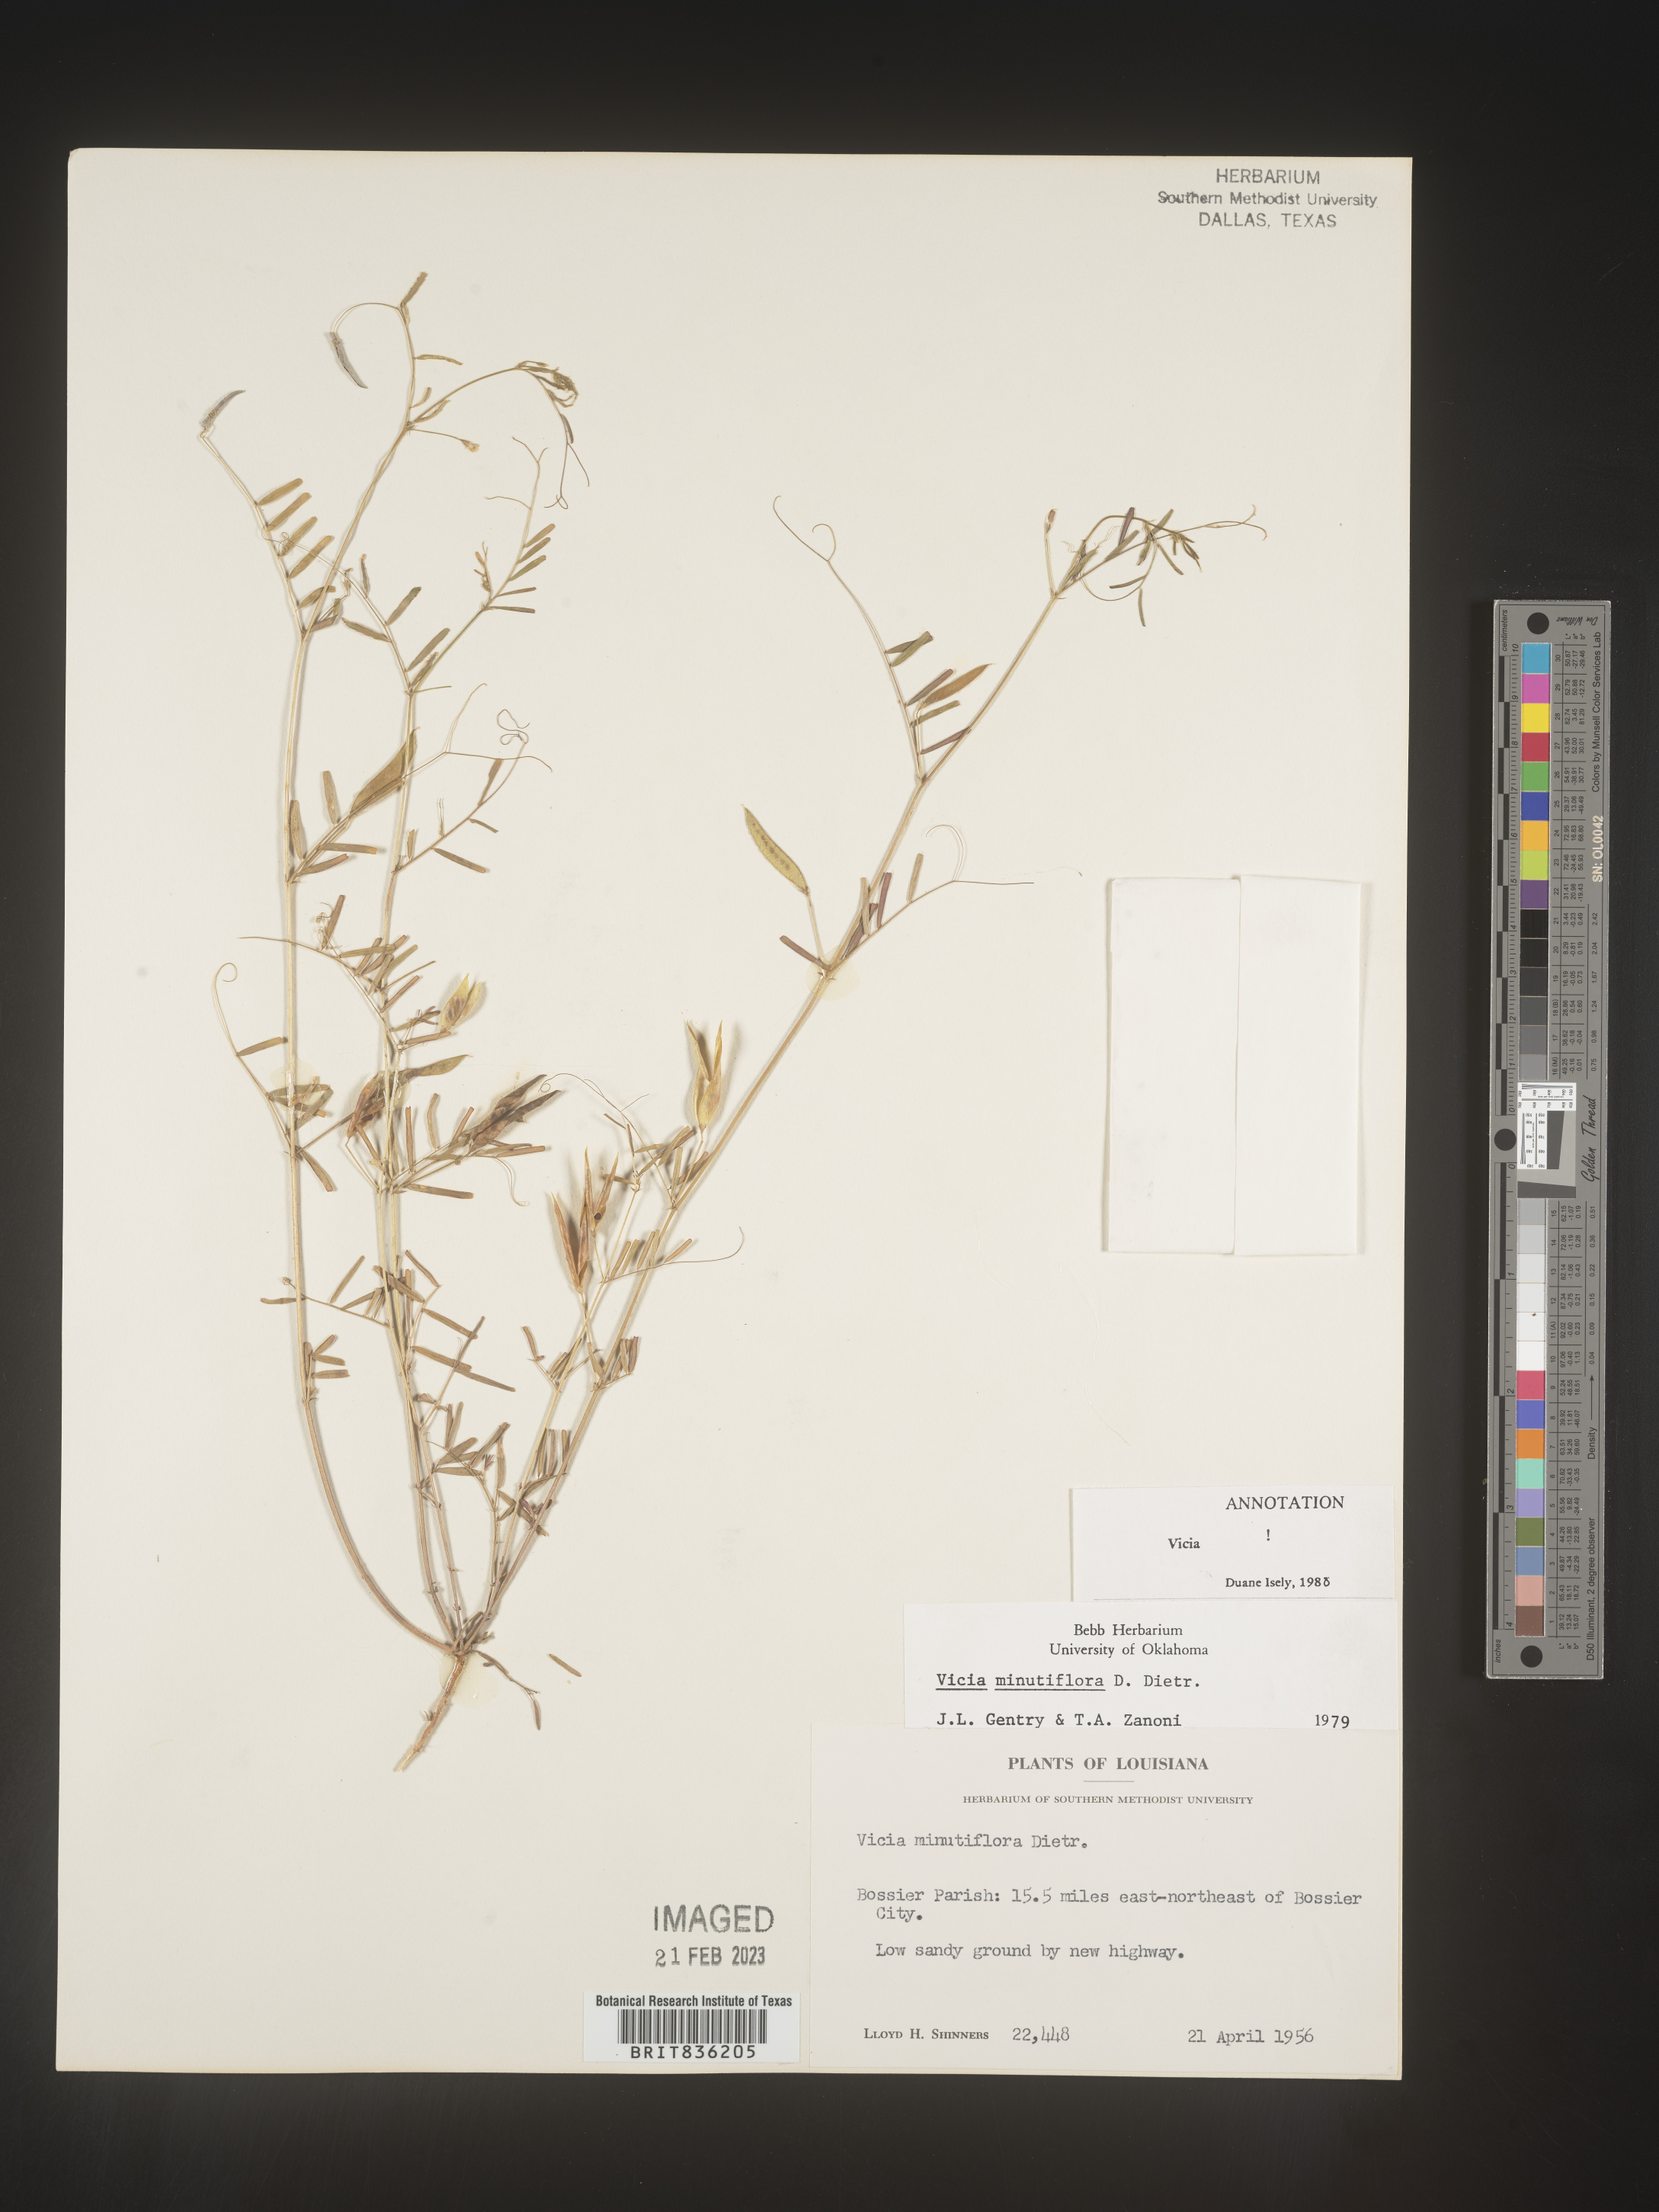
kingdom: Plantae
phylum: Tracheophyta
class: Magnoliopsida
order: Fabales
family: Fabaceae
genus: Vicia
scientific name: Vicia minutiflora
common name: Pygmy-flower vetch
